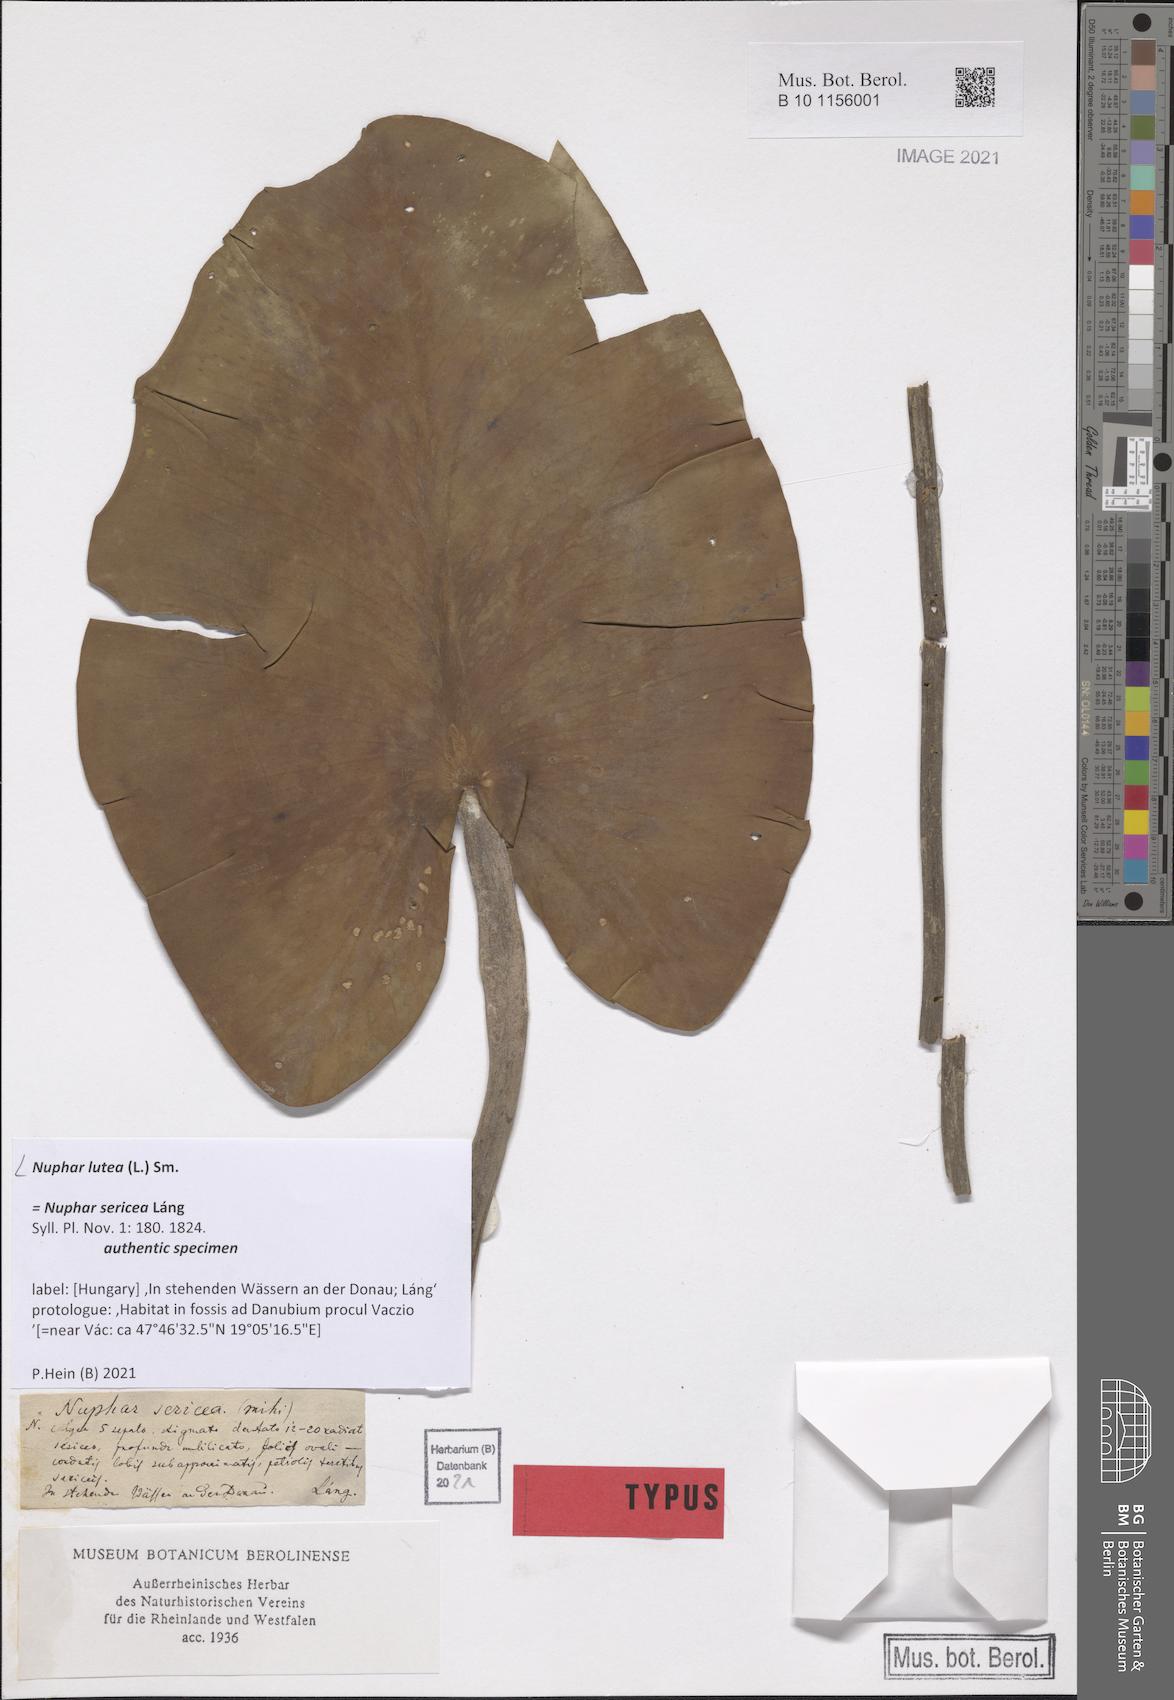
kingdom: Plantae
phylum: Tracheophyta
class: Magnoliopsida
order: Nymphaeales
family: Nymphaeaceae
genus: Nuphar
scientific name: Nuphar lutea
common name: Yellow water-lily
